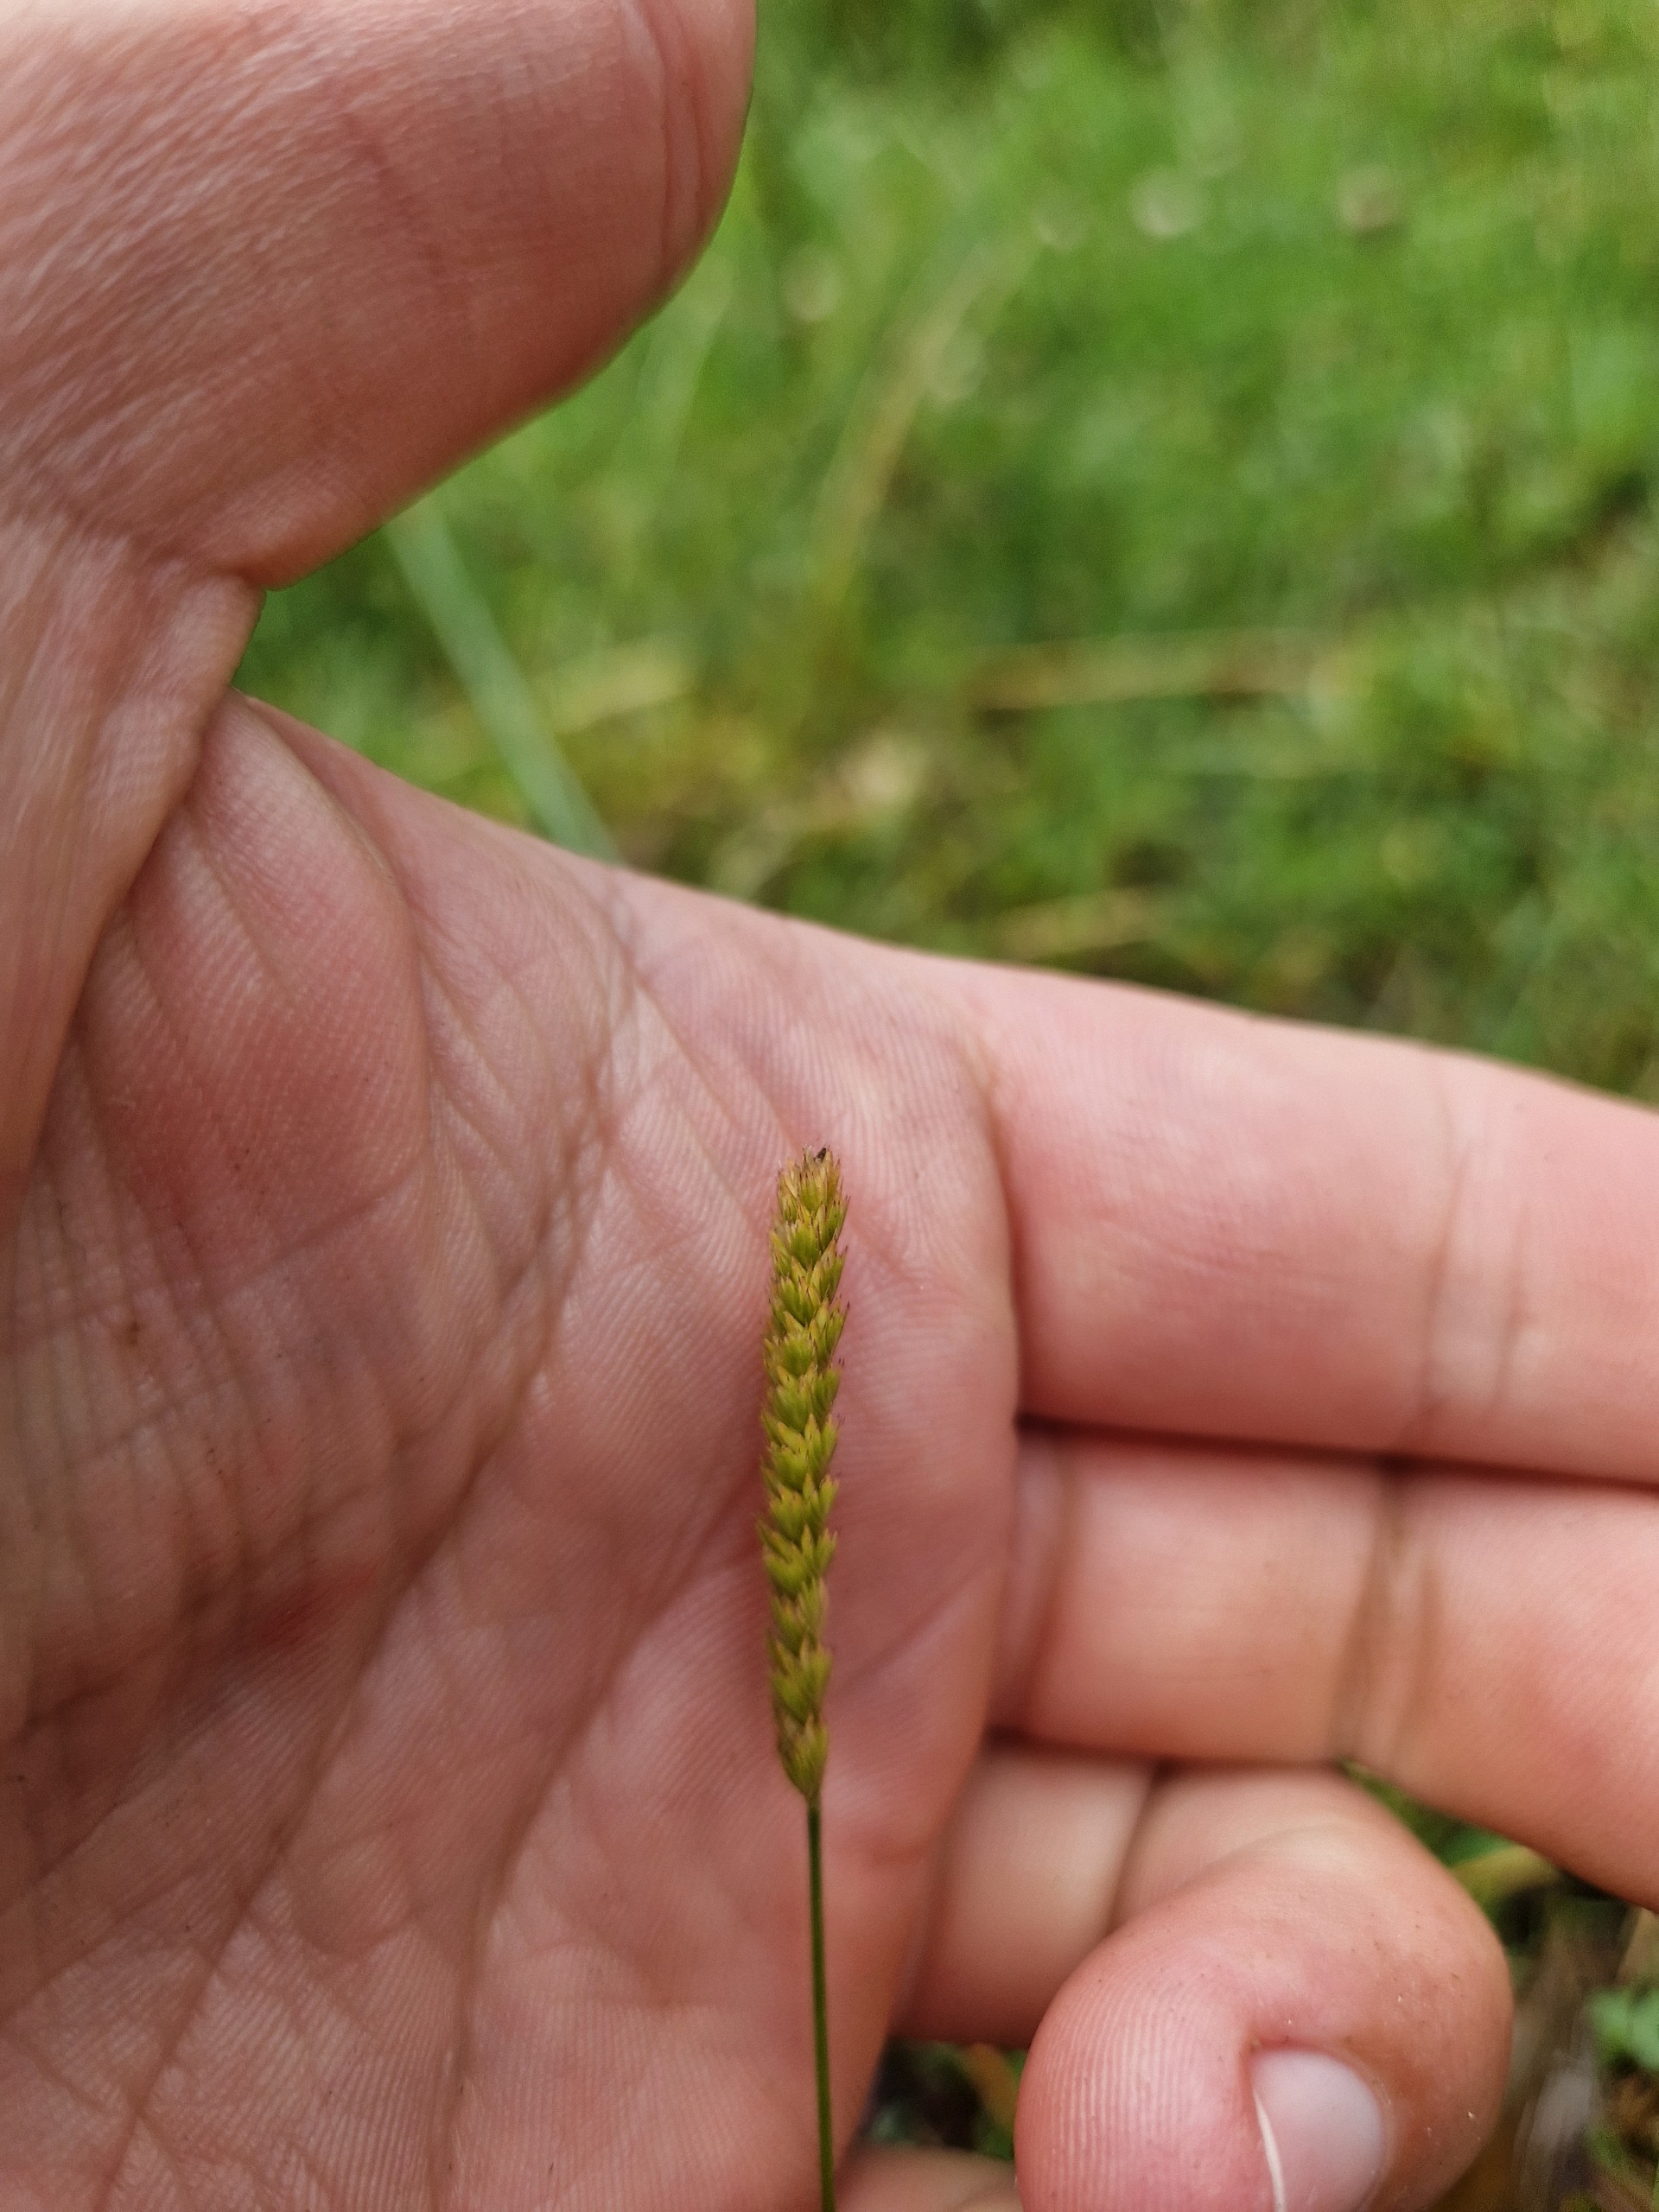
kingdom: Plantae
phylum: Tracheophyta
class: Liliopsida
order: Poales
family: Poaceae
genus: Cynosurus
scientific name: Cynosurus cristatus
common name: Kamgræs
